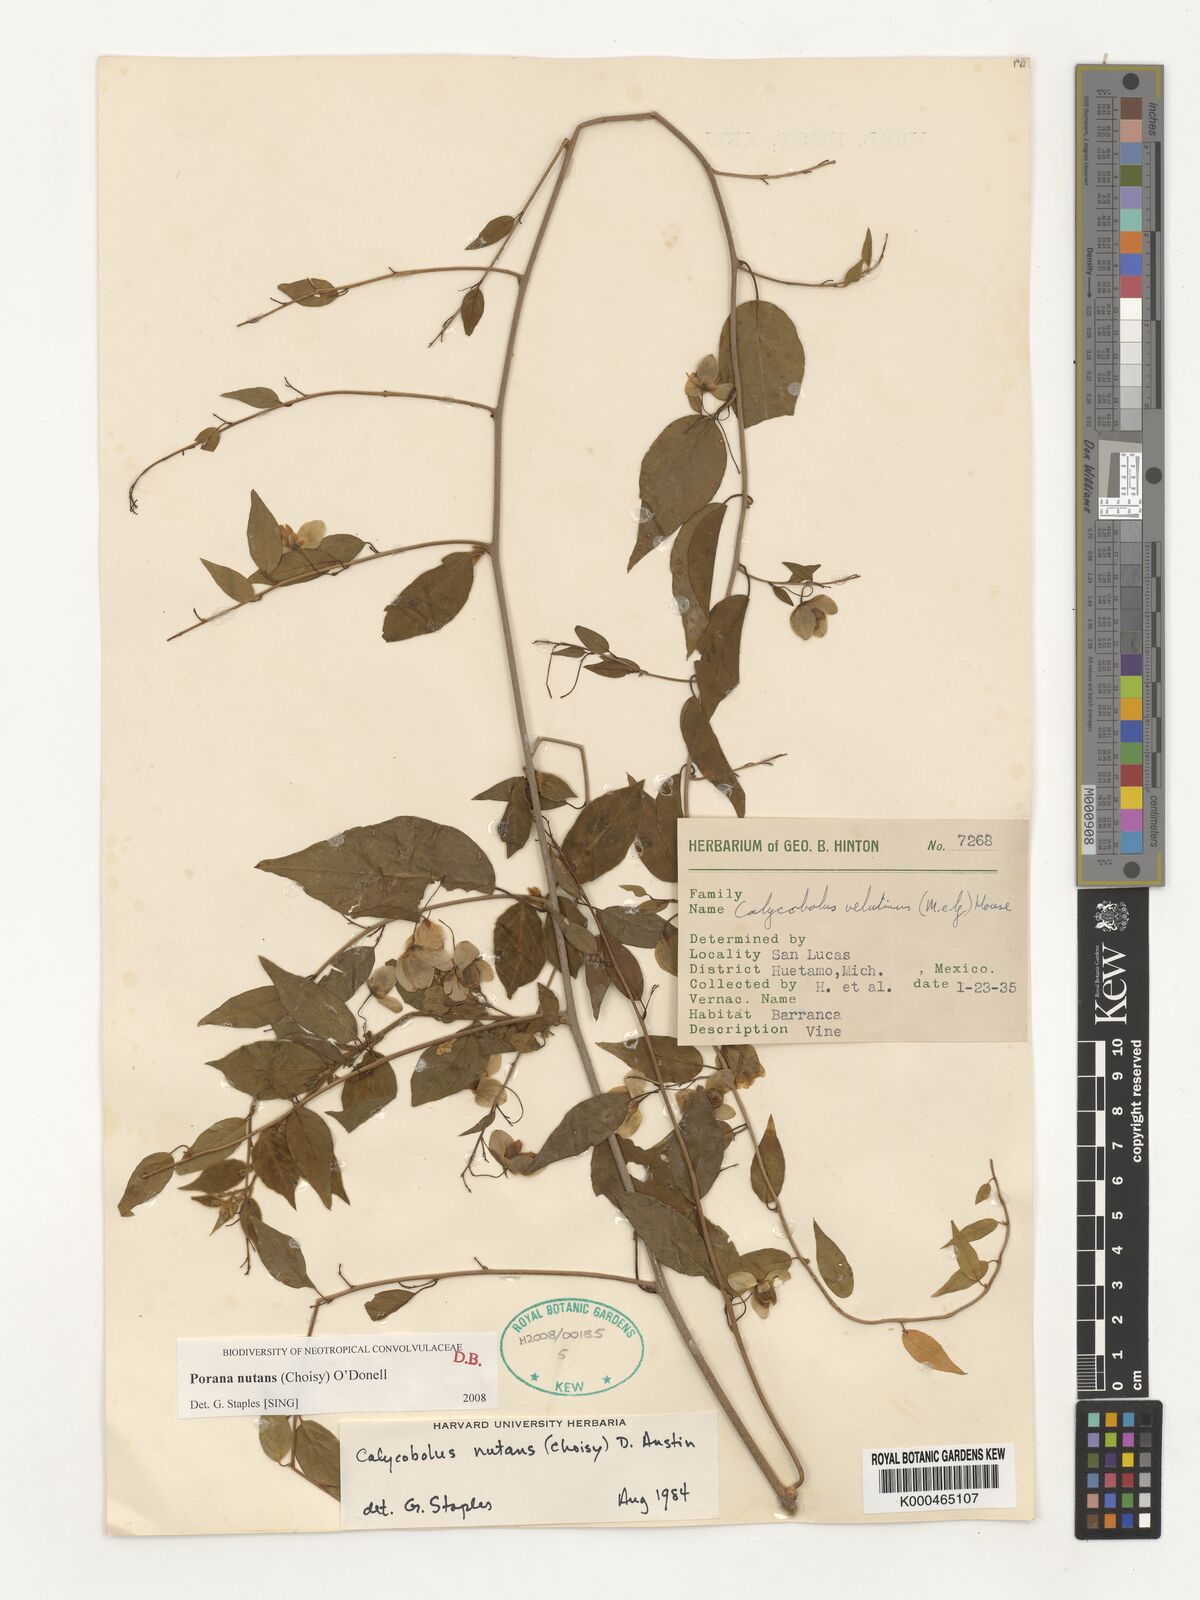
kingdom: Plantae
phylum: Tracheophyta
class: Magnoliopsida
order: Solanales
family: Convolvulaceae
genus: Calycobolus
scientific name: Calycobolus
